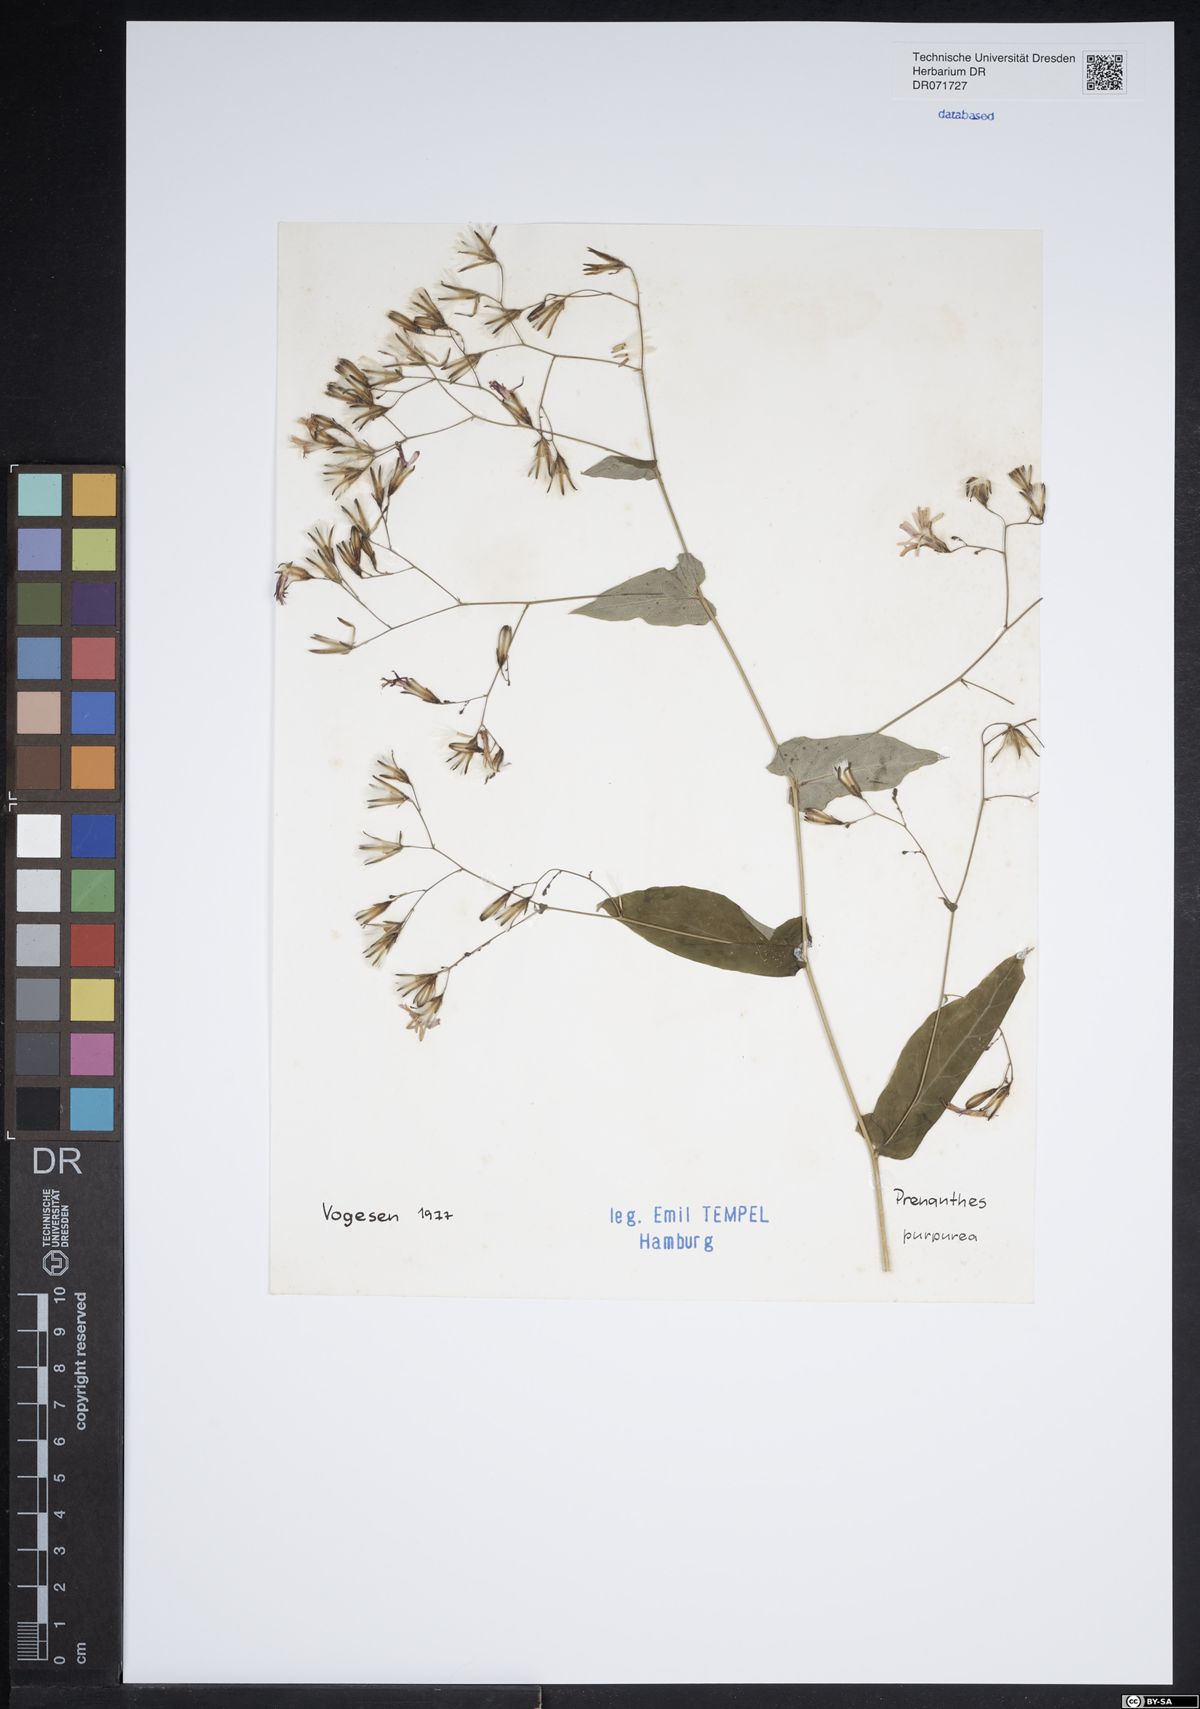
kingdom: Plantae
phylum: Tracheophyta
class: Magnoliopsida
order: Asterales
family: Asteraceae
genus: Prenanthes
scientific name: Prenanthes purpurea
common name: Purple lettuce
